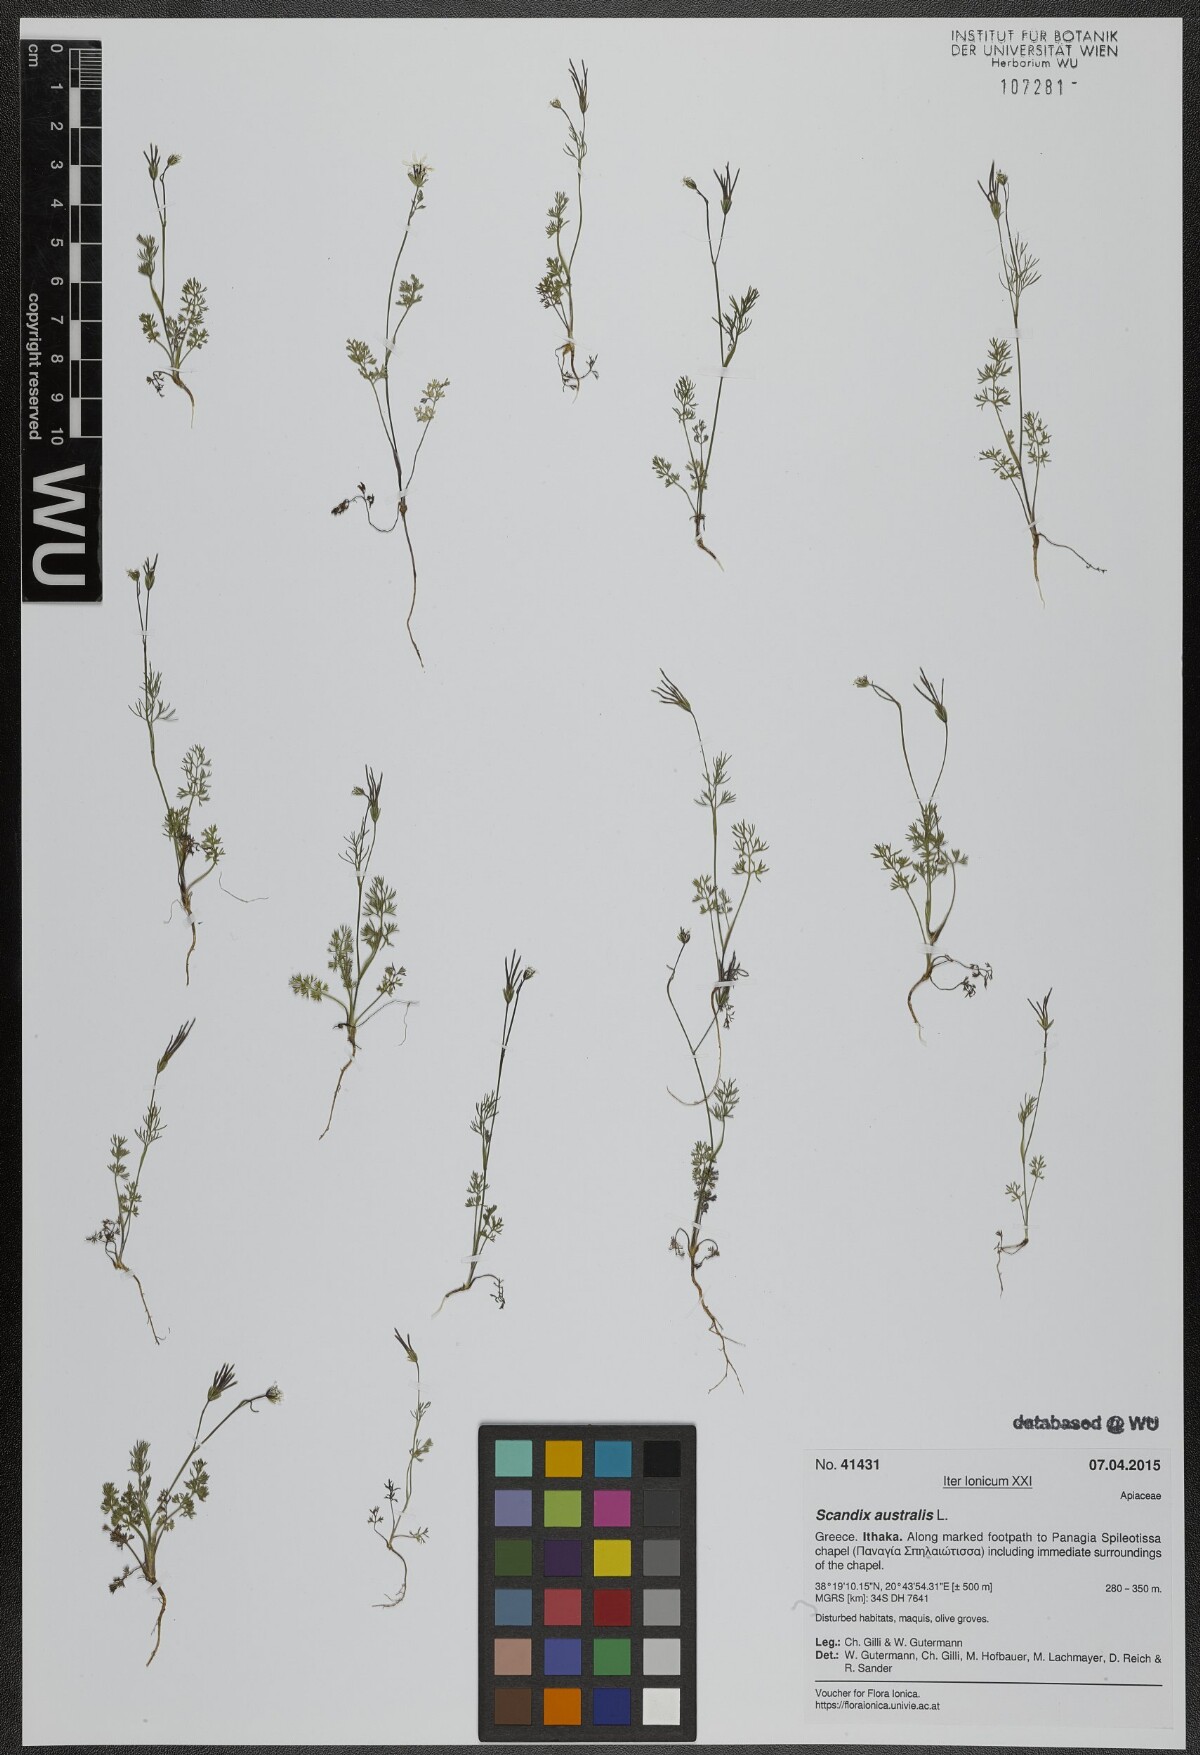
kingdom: Plantae
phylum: Tracheophyta
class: Magnoliopsida
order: Apiales
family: Apiaceae
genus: Scandix
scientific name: Scandix australis
